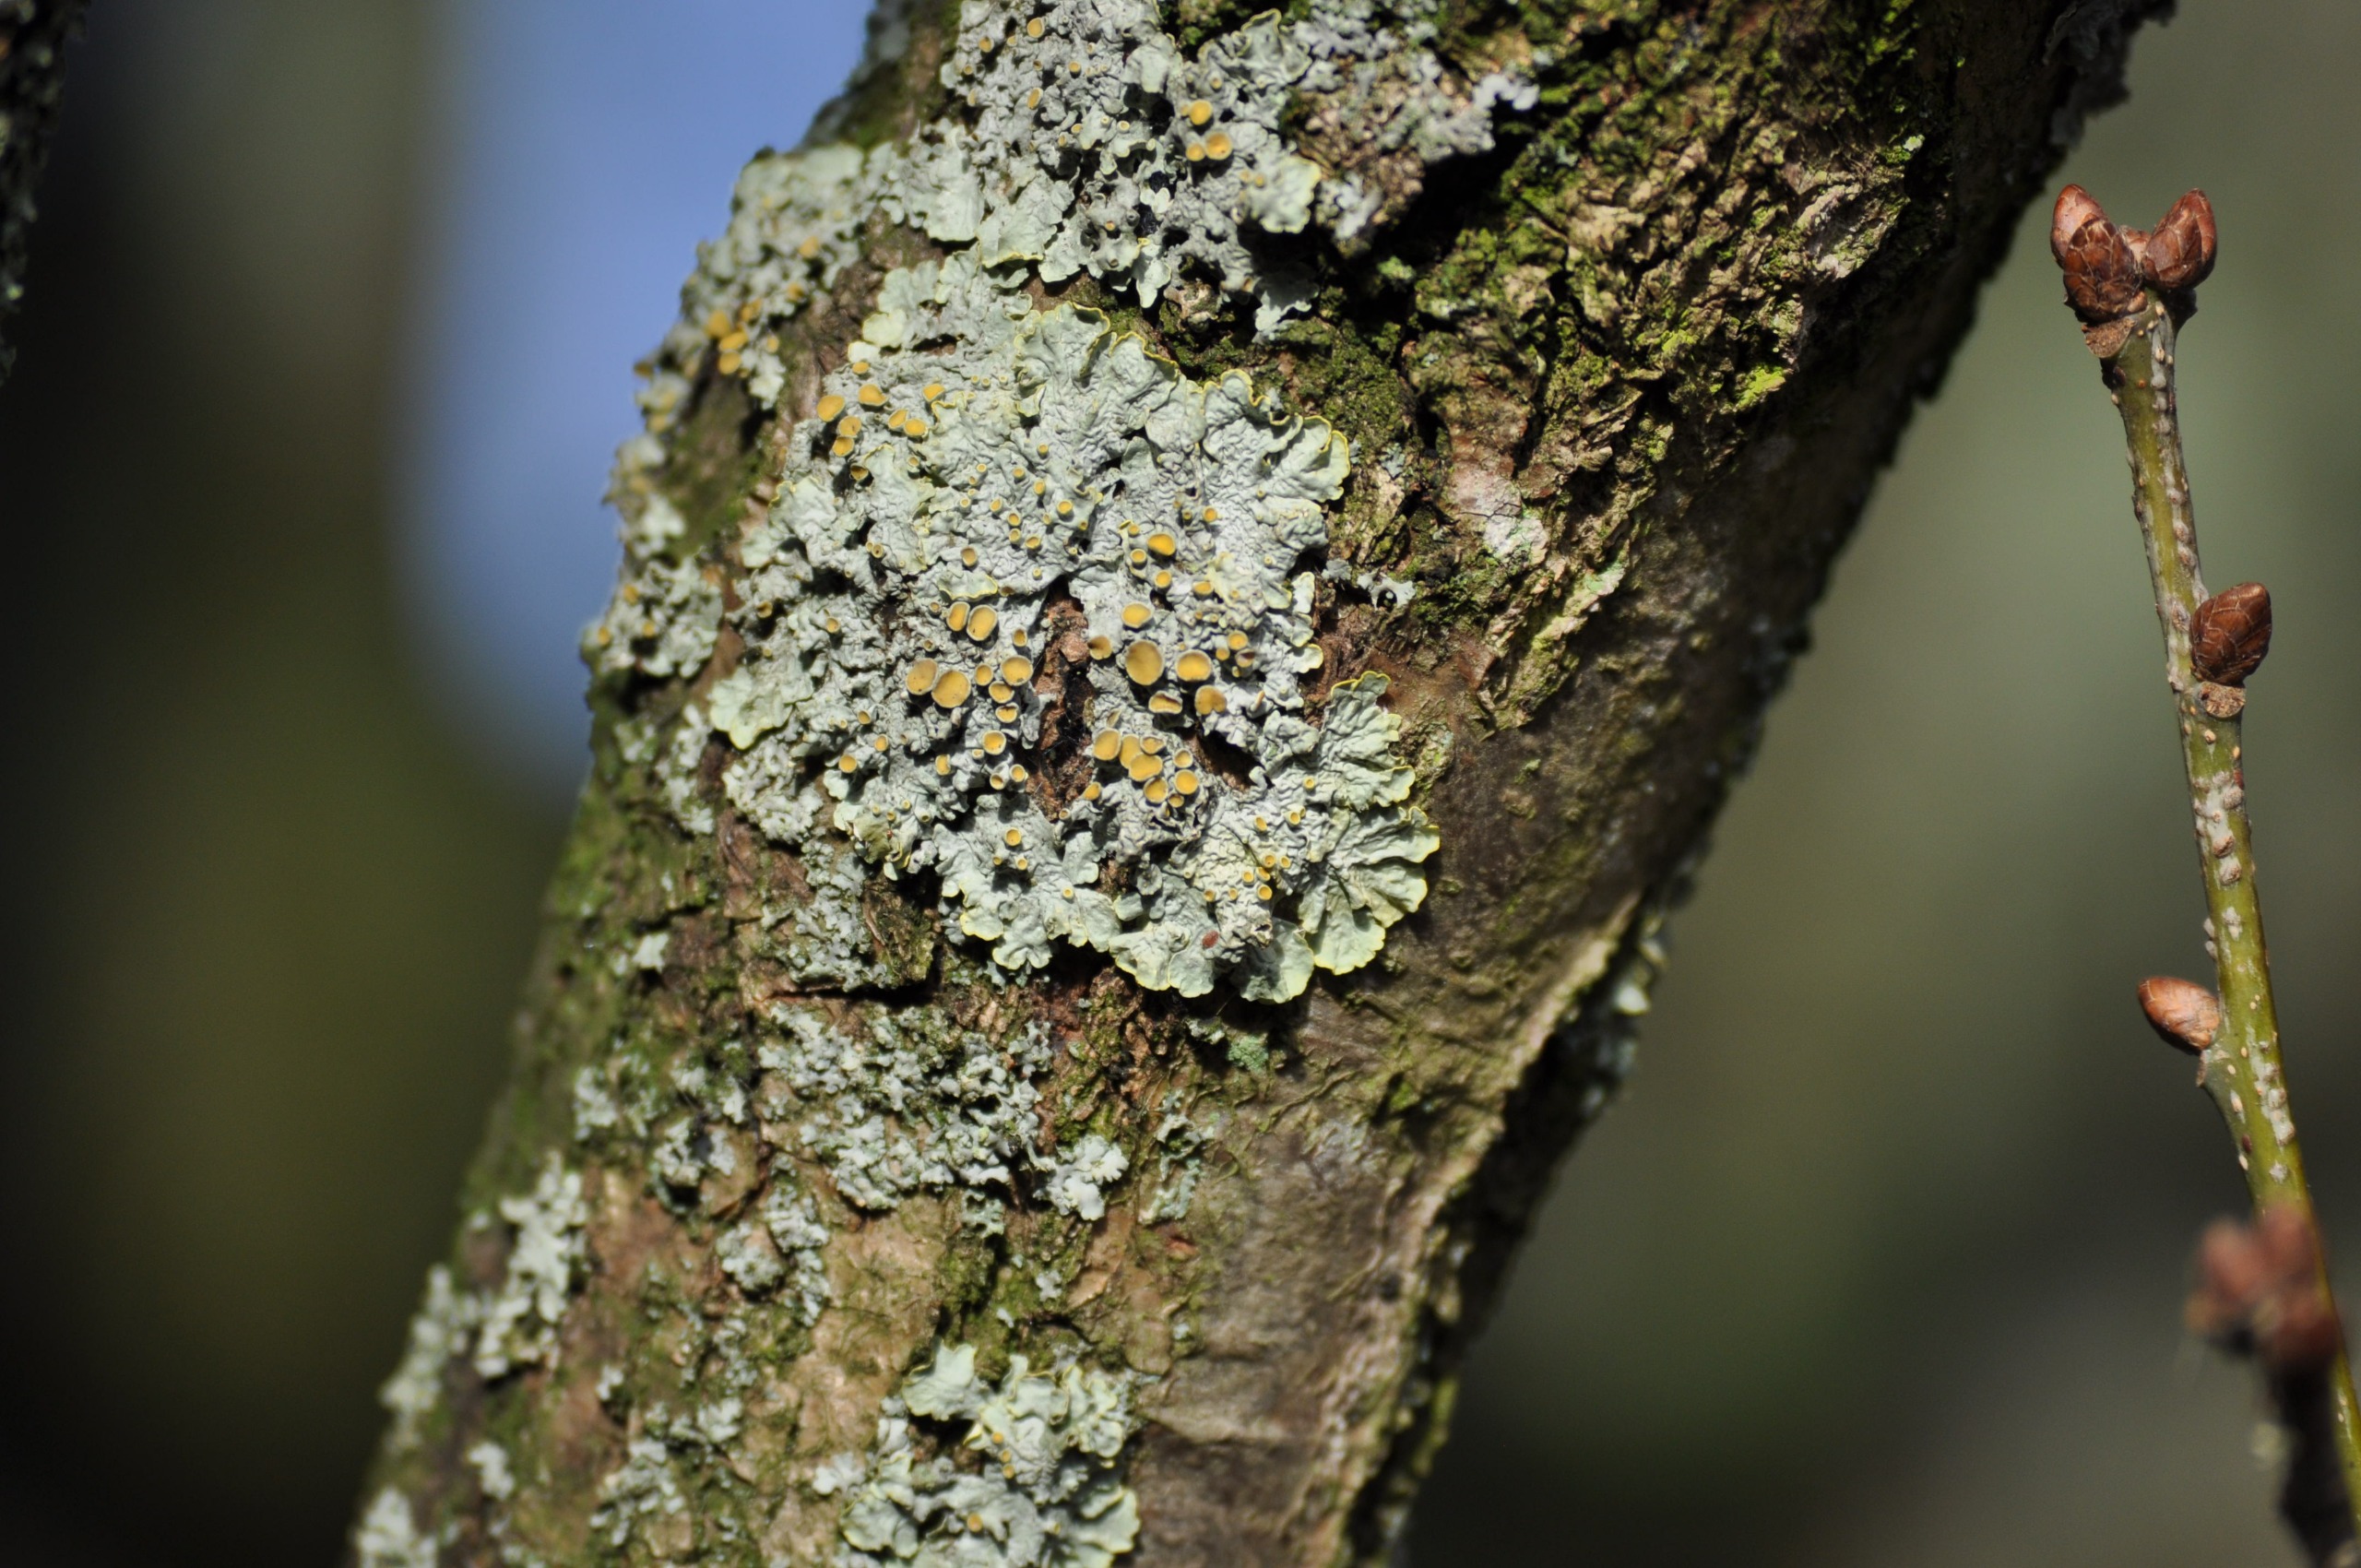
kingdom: Fungi
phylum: Ascomycota
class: Lecanoromycetes
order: Teloschistales
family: Teloschistaceae
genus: Xanthoria
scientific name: Xanthoria parietina
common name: Almindelig væggelav
